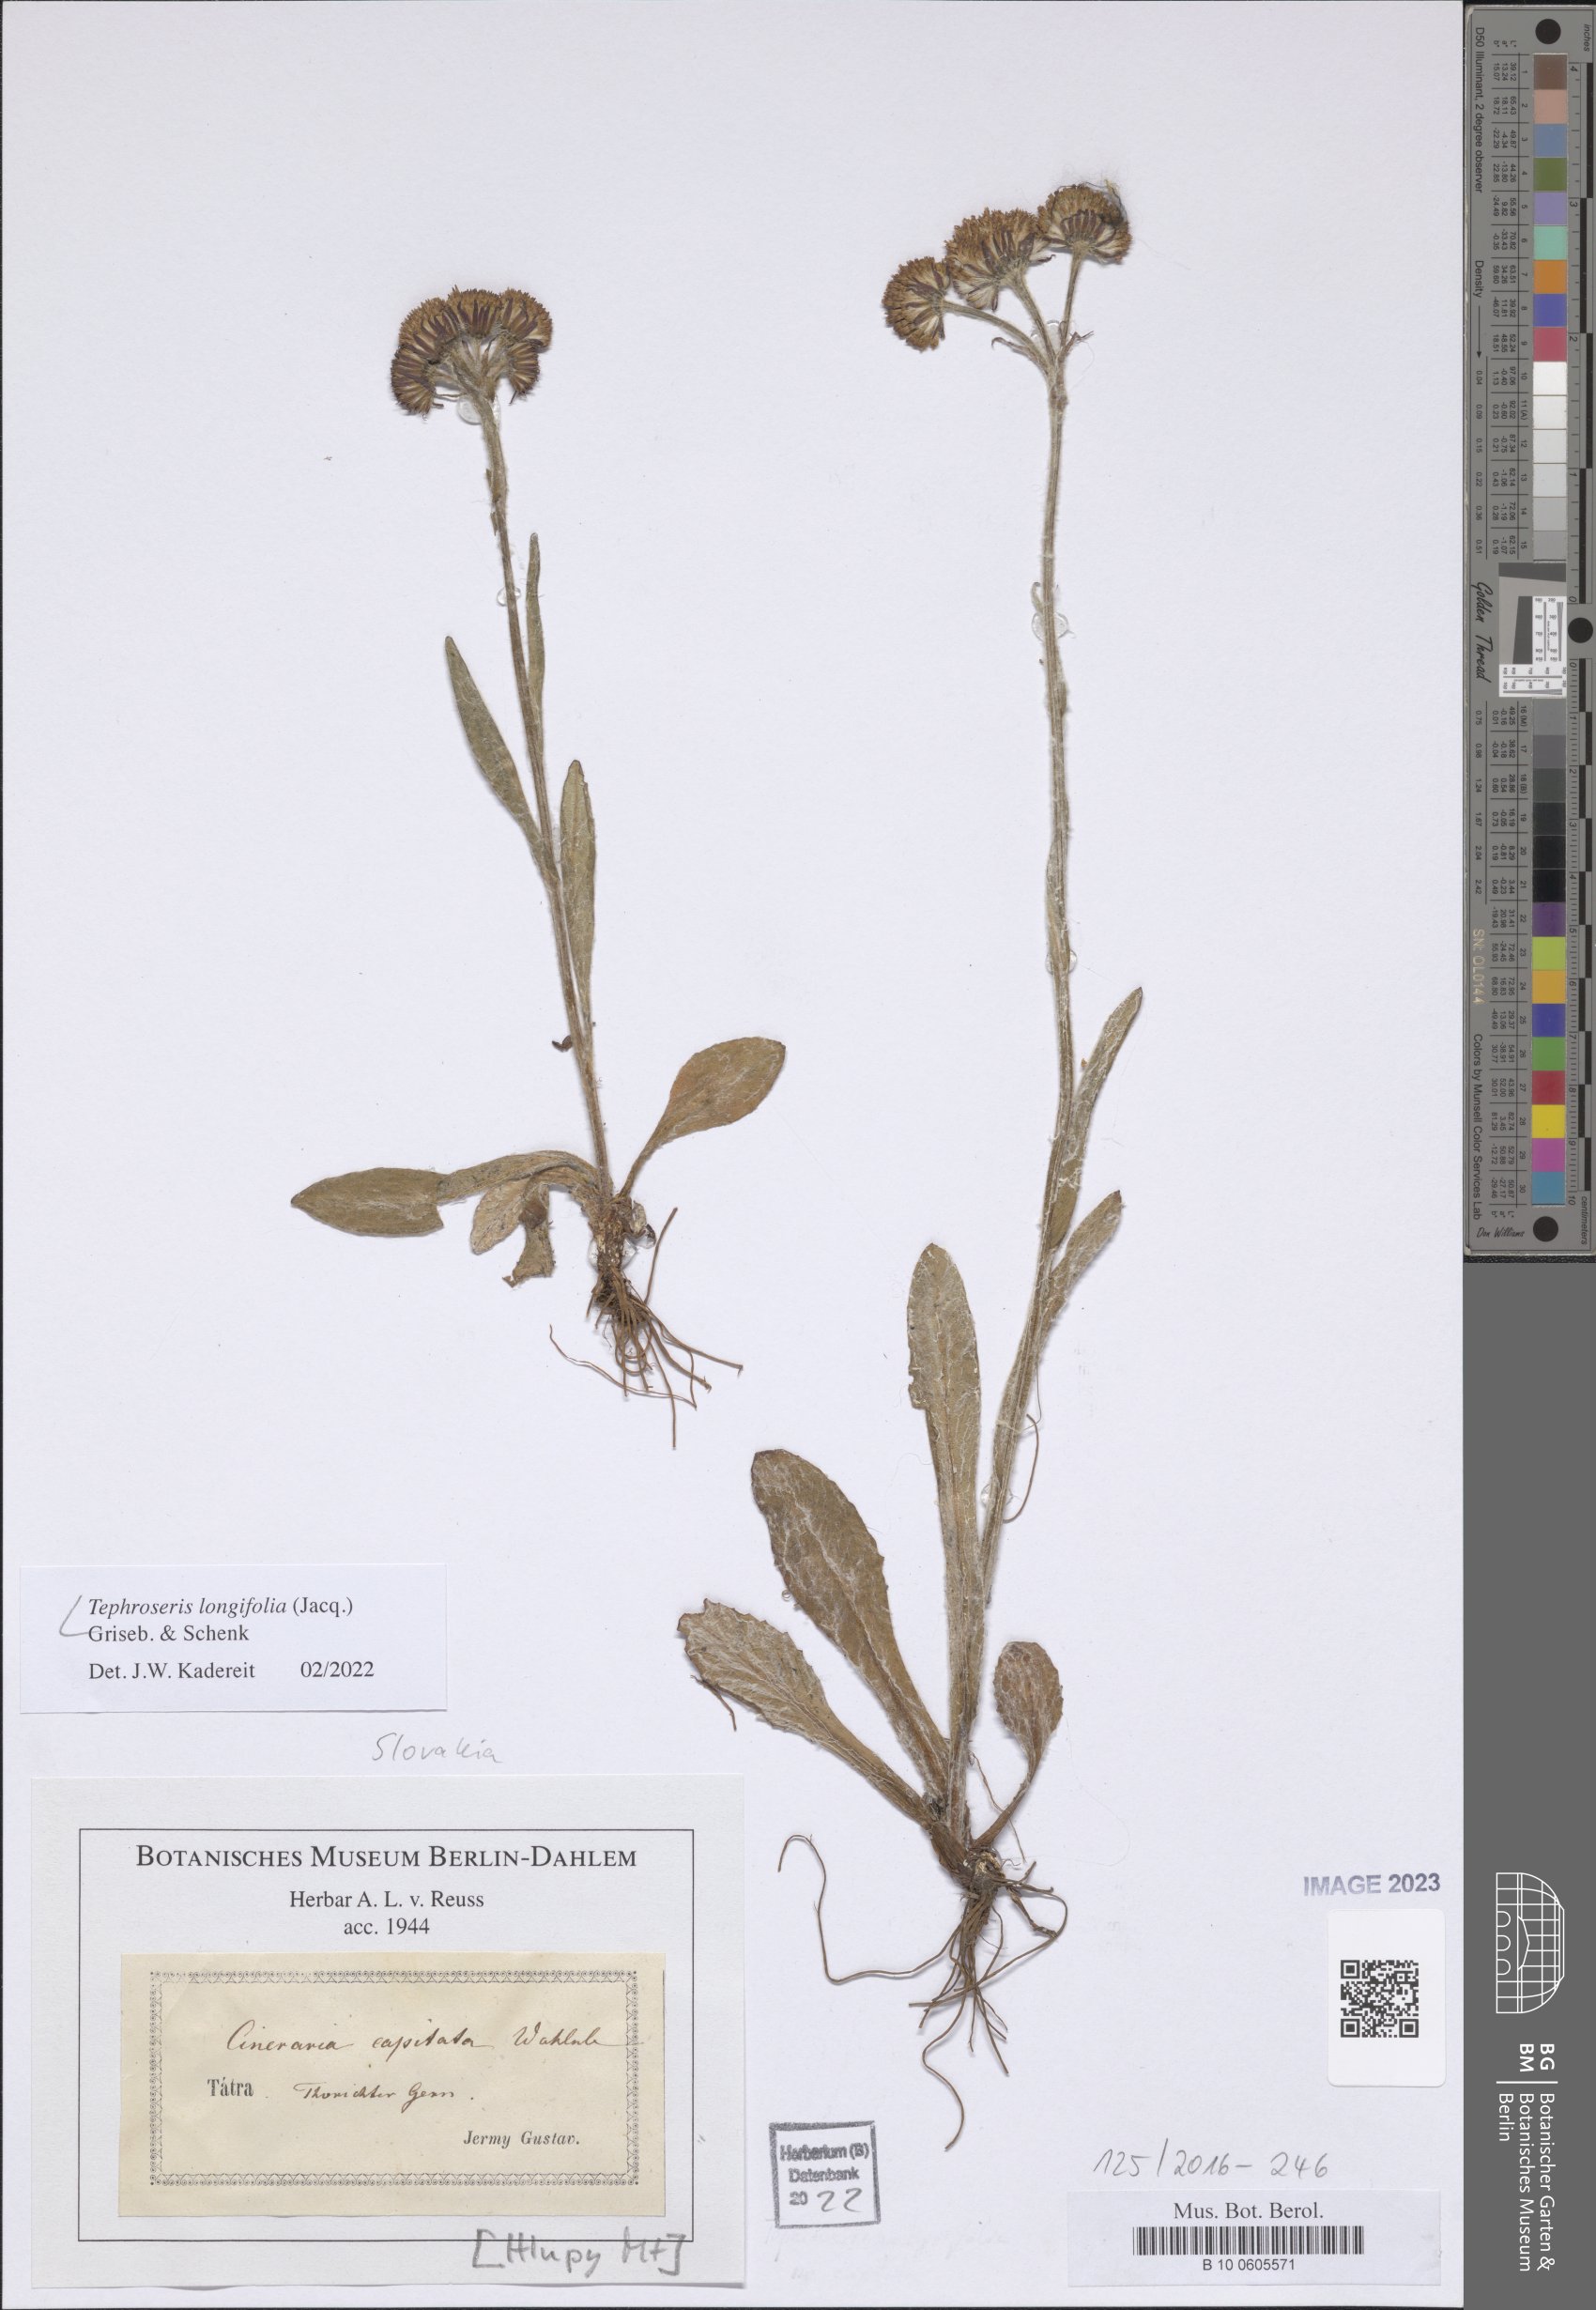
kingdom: Plantae
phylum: Tracheophyta
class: Magnoliopsida
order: Asterales
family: Asteraceae
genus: Tephroseris
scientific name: Tephroseris longifolia
